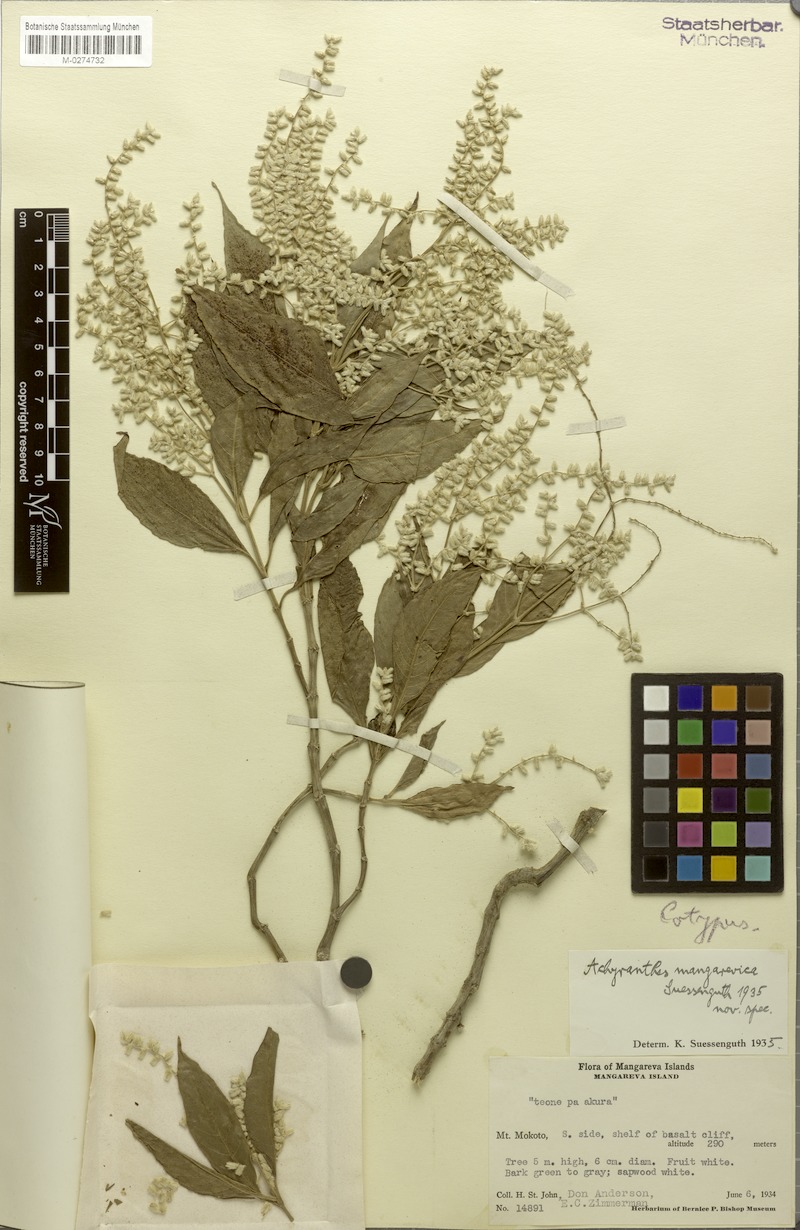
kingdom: Plantae
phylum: Tracheophyta
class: Magnoliopsida
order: Caryophyllales
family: Amaranthaceae
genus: Achyranthes
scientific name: Achyranthes mangarevica
